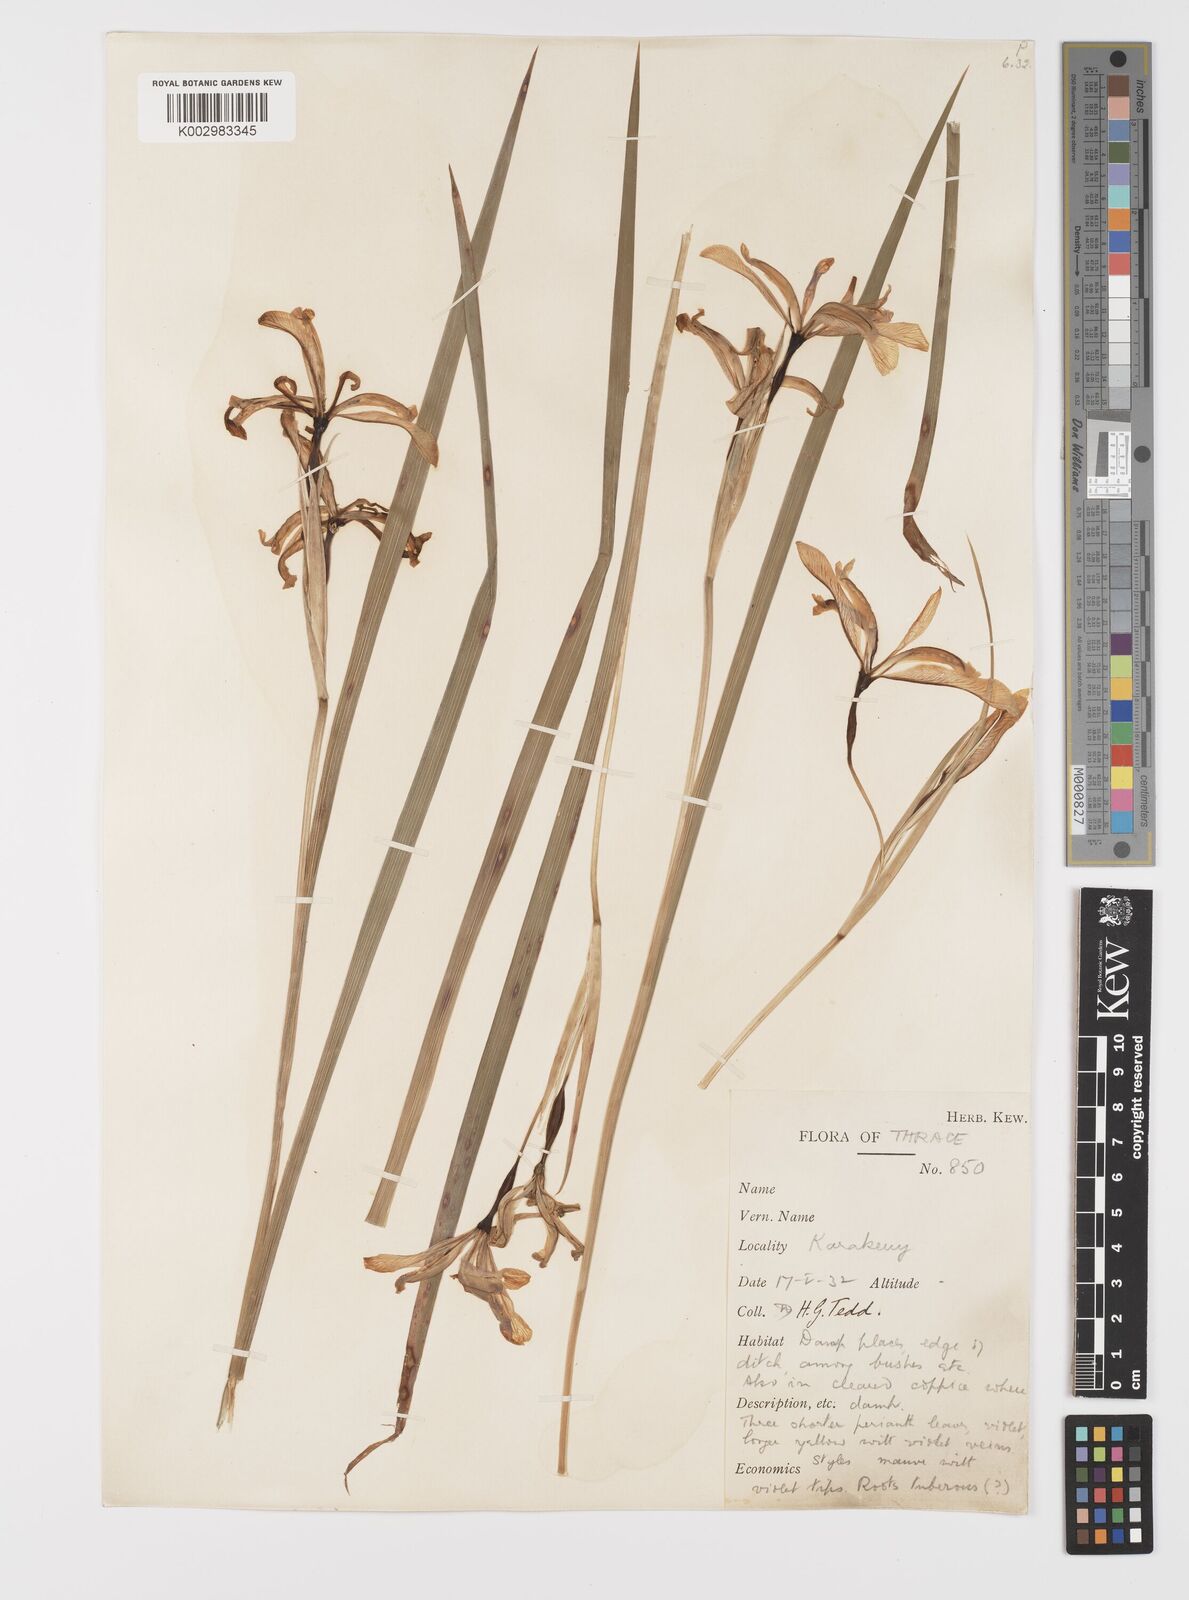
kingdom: Plantae
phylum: Tracheophyta
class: Liliopsida
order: Asparagales
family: Iridaceae
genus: Iris
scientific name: Iris graminea
